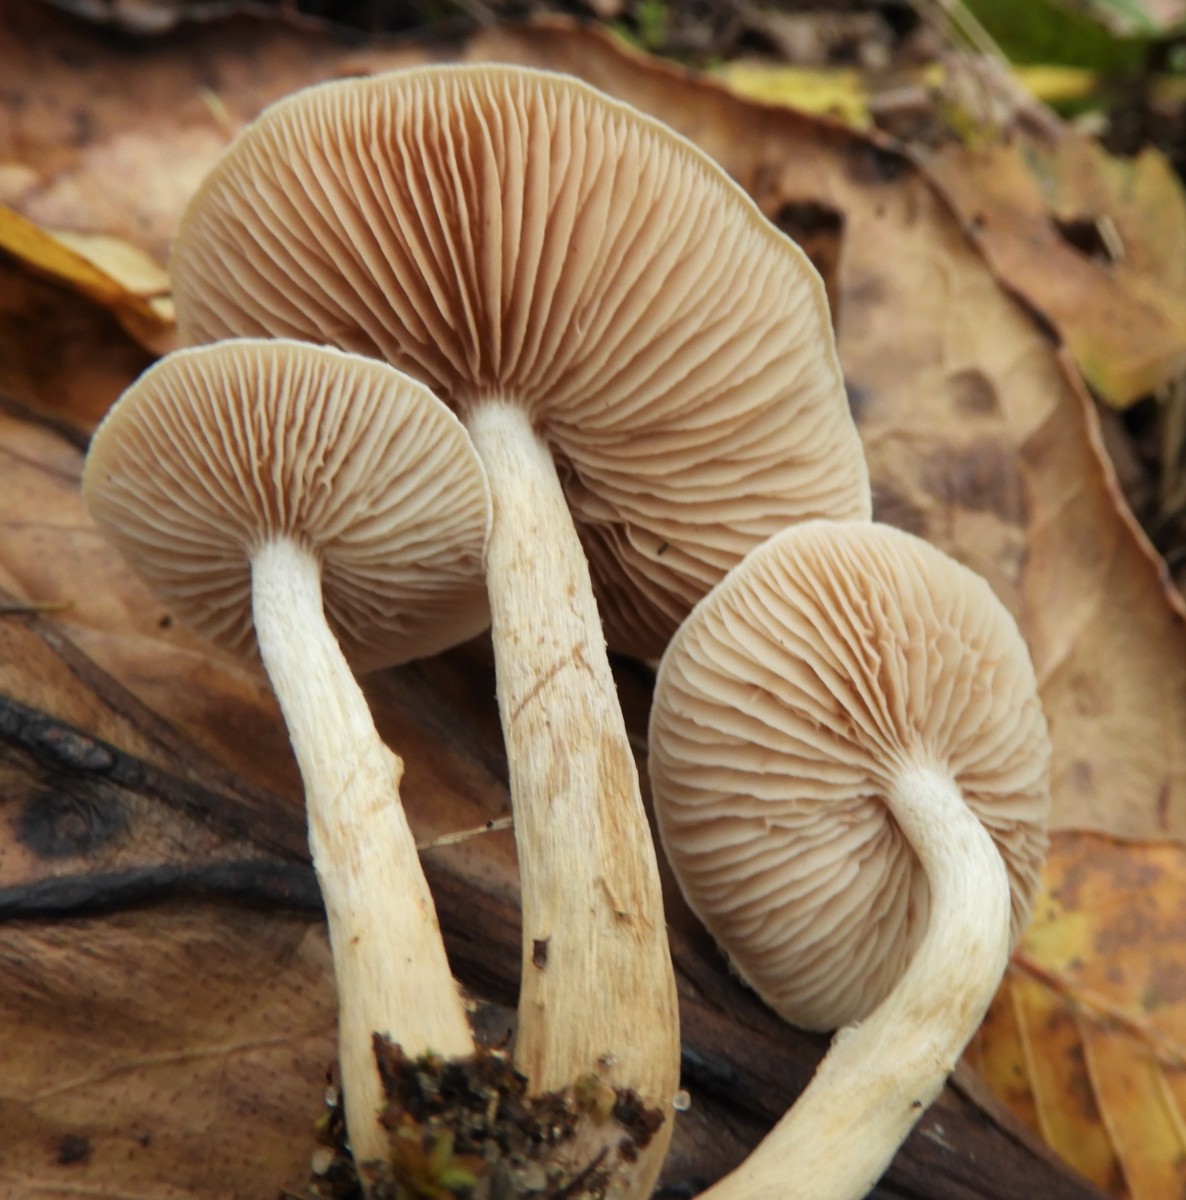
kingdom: Fungi
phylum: Basidiomycota
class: Agaricomycetes
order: Agaricales
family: Hymenogastraceae
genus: Hebeloma
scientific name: Hebeloma mesophaeum
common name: lerbrun tåreblad
